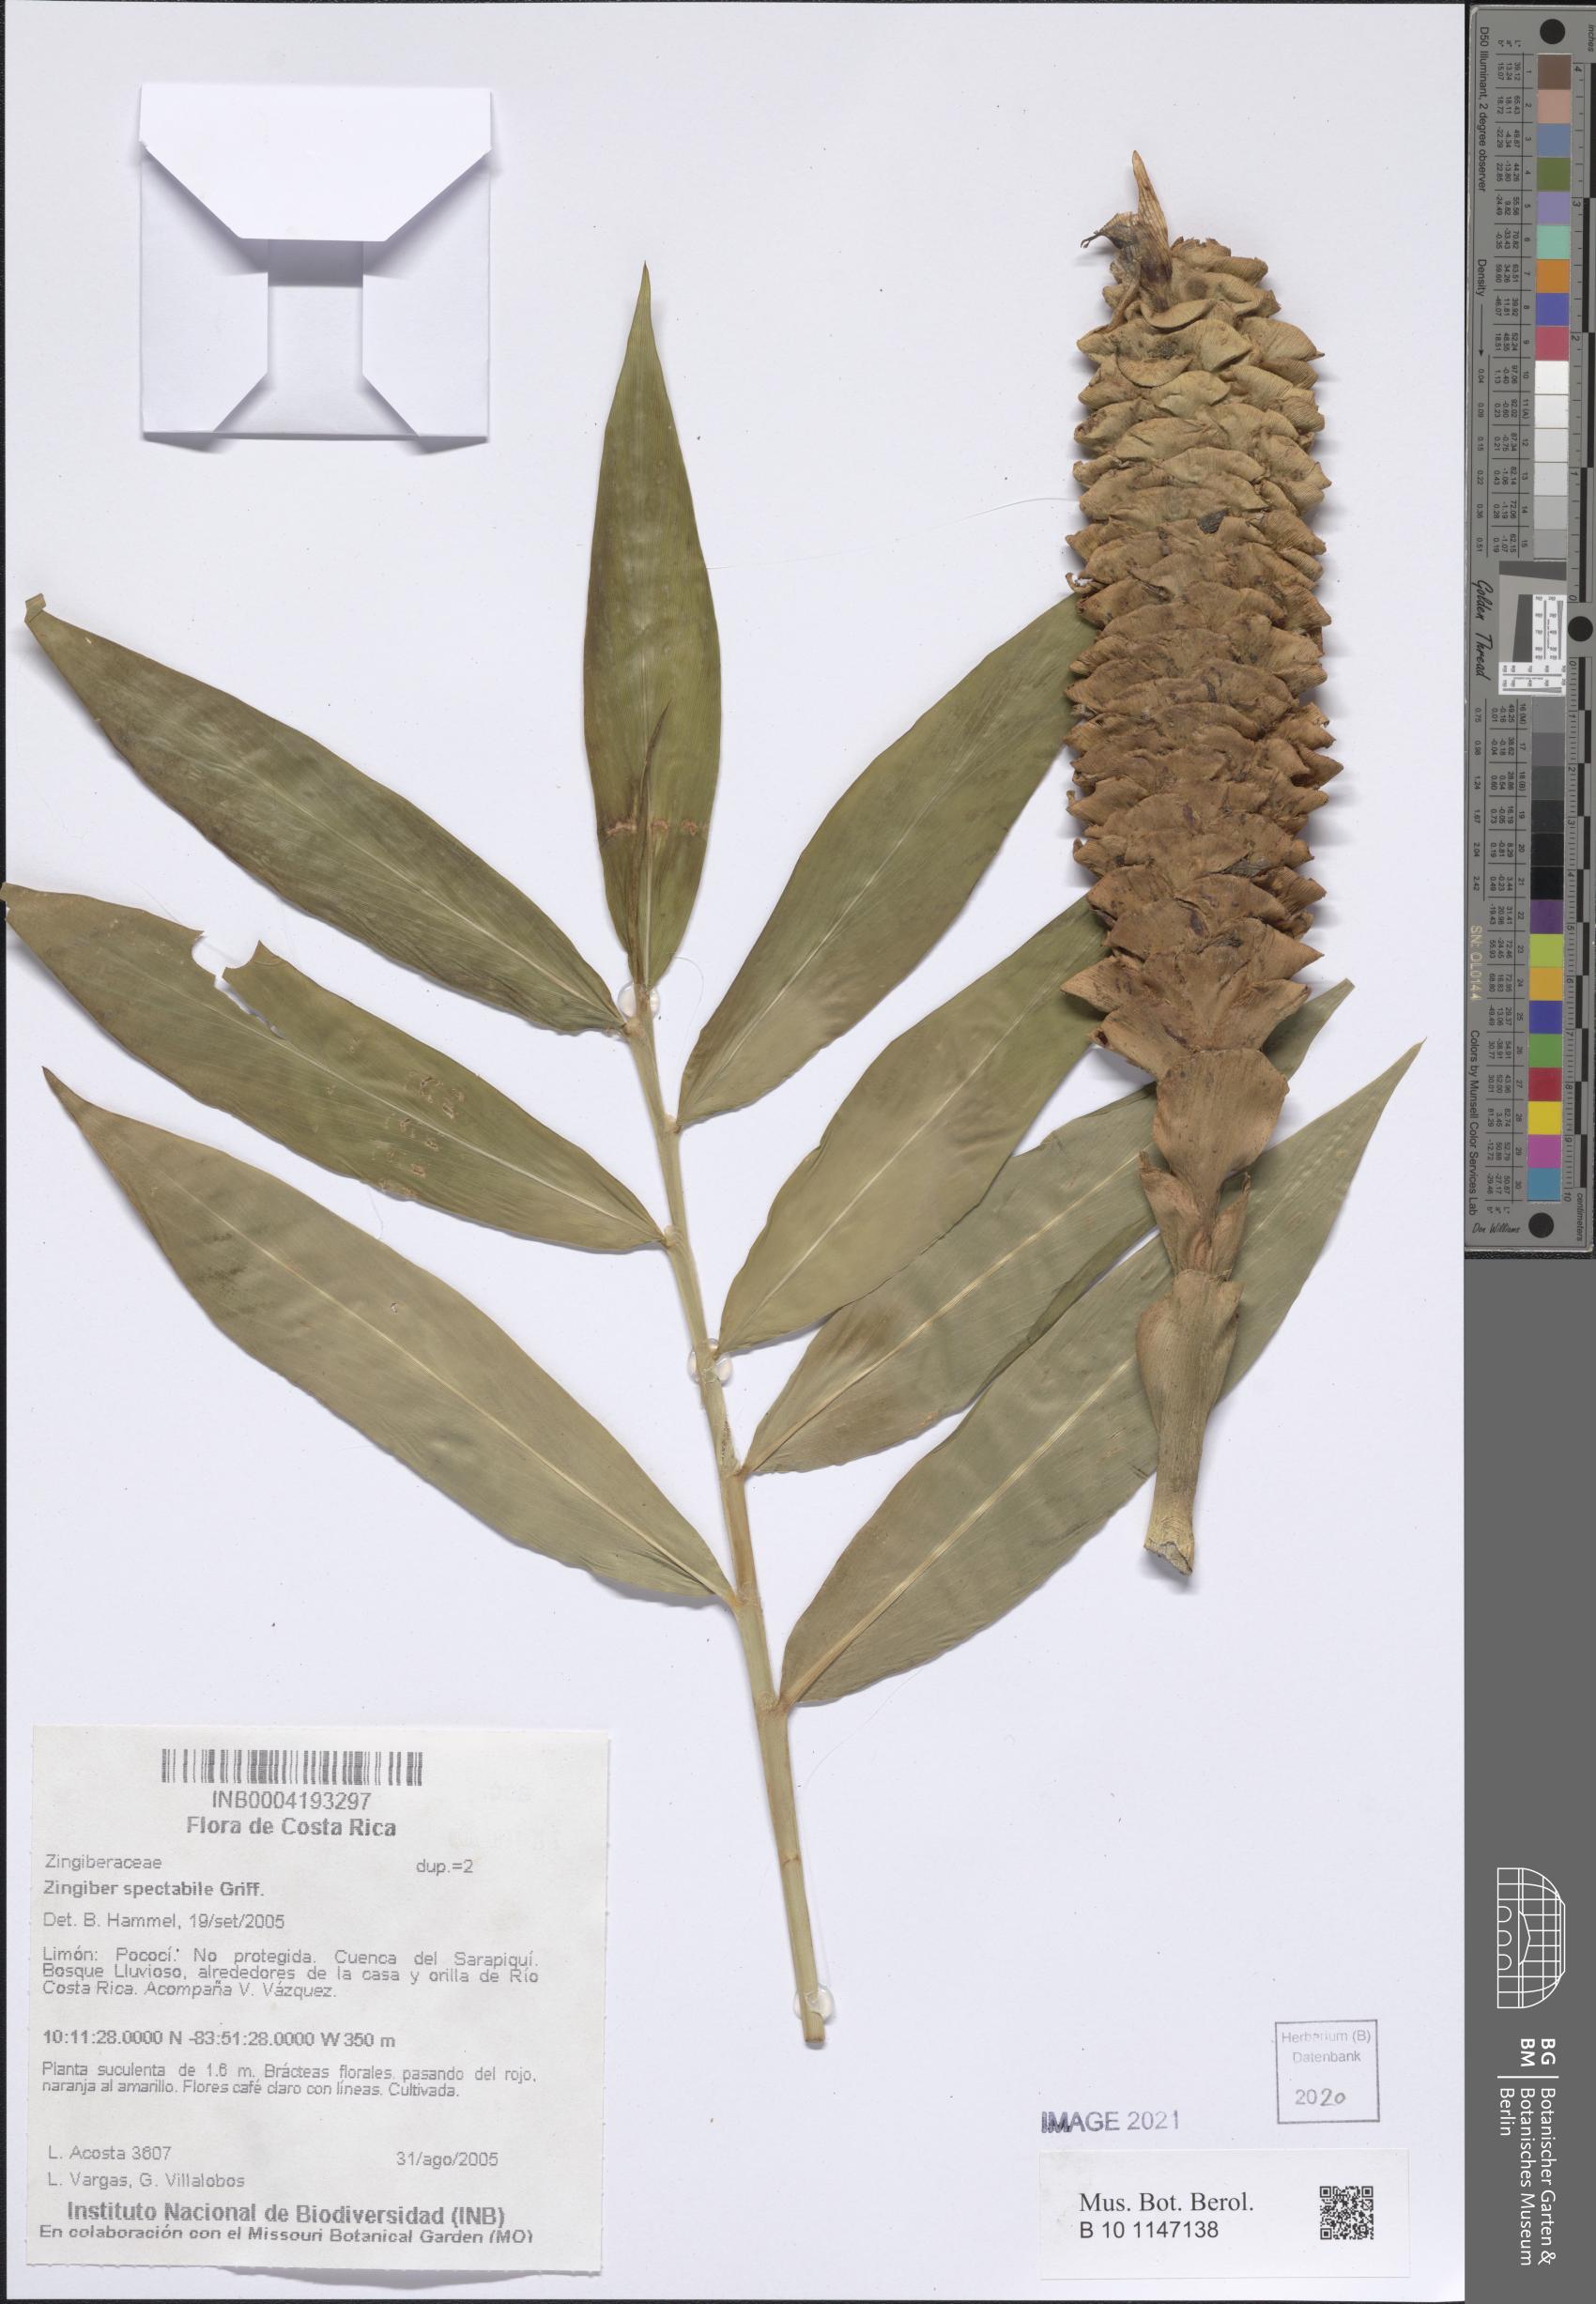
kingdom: Plantae
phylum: Tracheophyta
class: Liliopsida
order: Zingiberales
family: Zingiberaceae
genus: Zingiber
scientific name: Zingiber spectabile
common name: Beehive ginger
